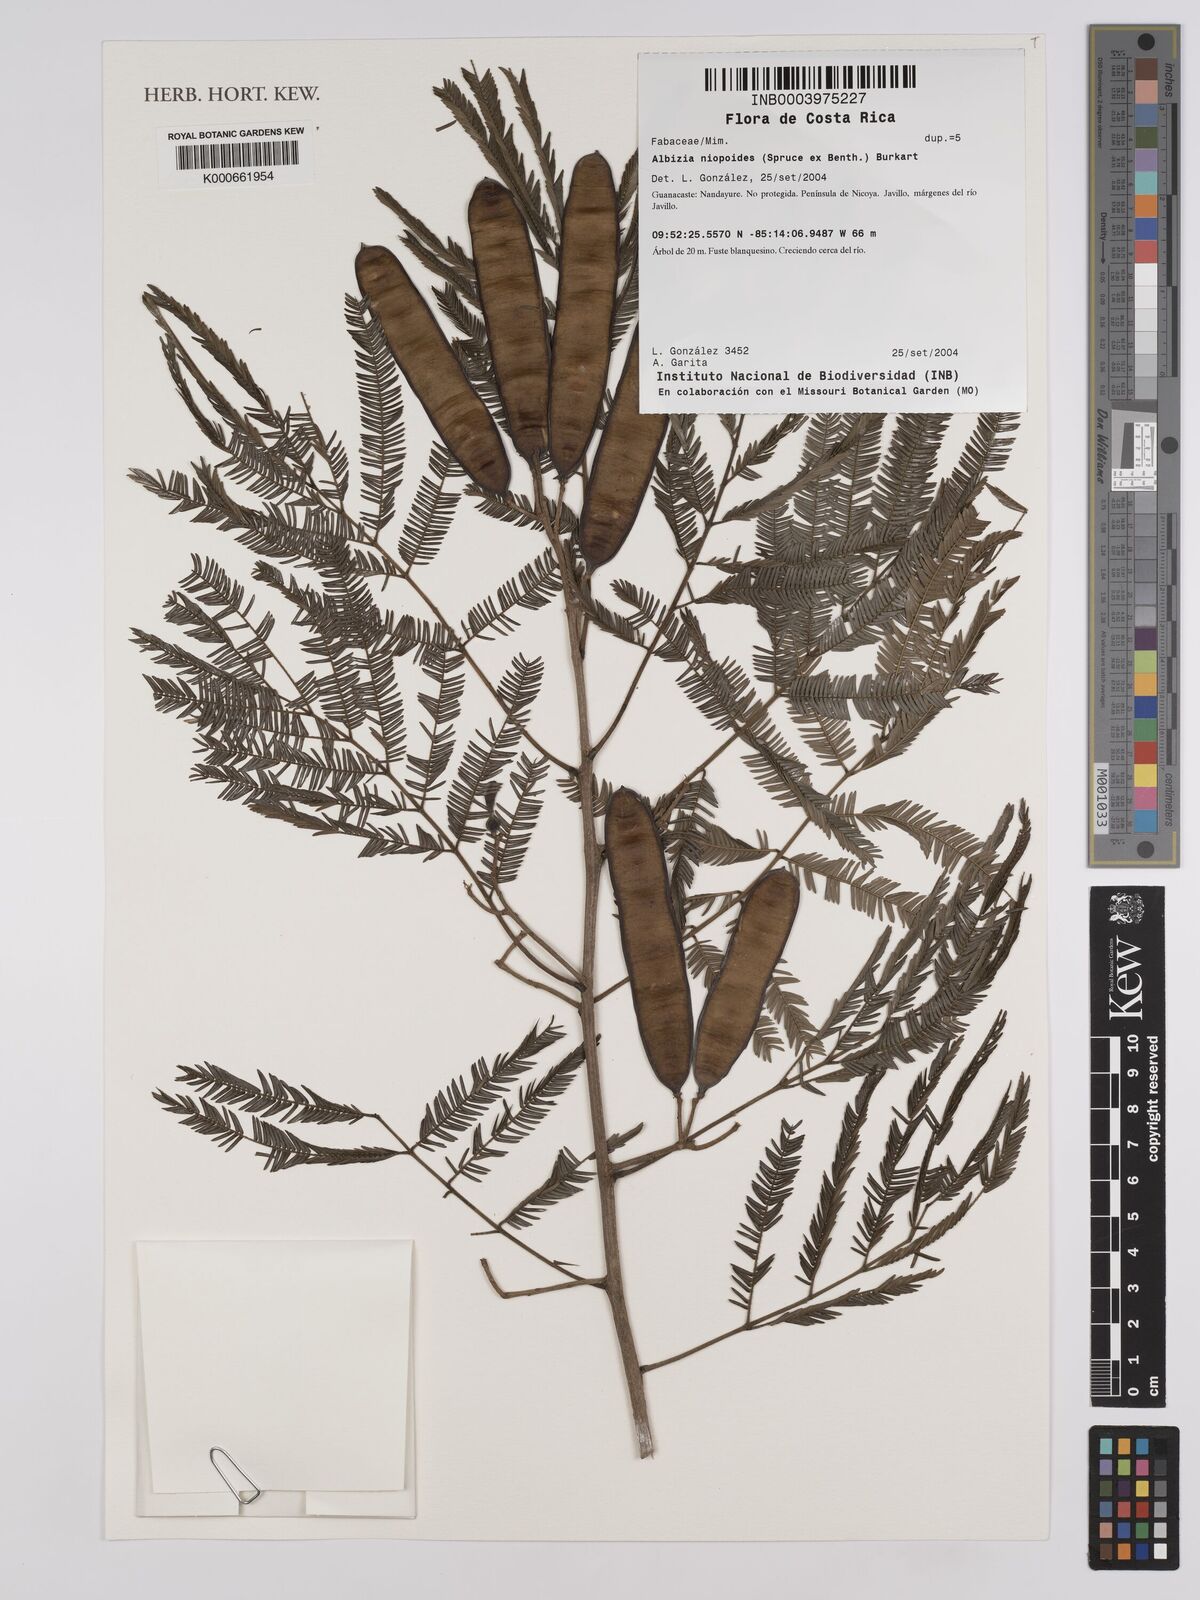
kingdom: Plantae
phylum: Tracheophyta
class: Magnoliopsida
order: Fabales
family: Fabaceae
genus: Albizia
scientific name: Albizia niopoides
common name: Silk tree
